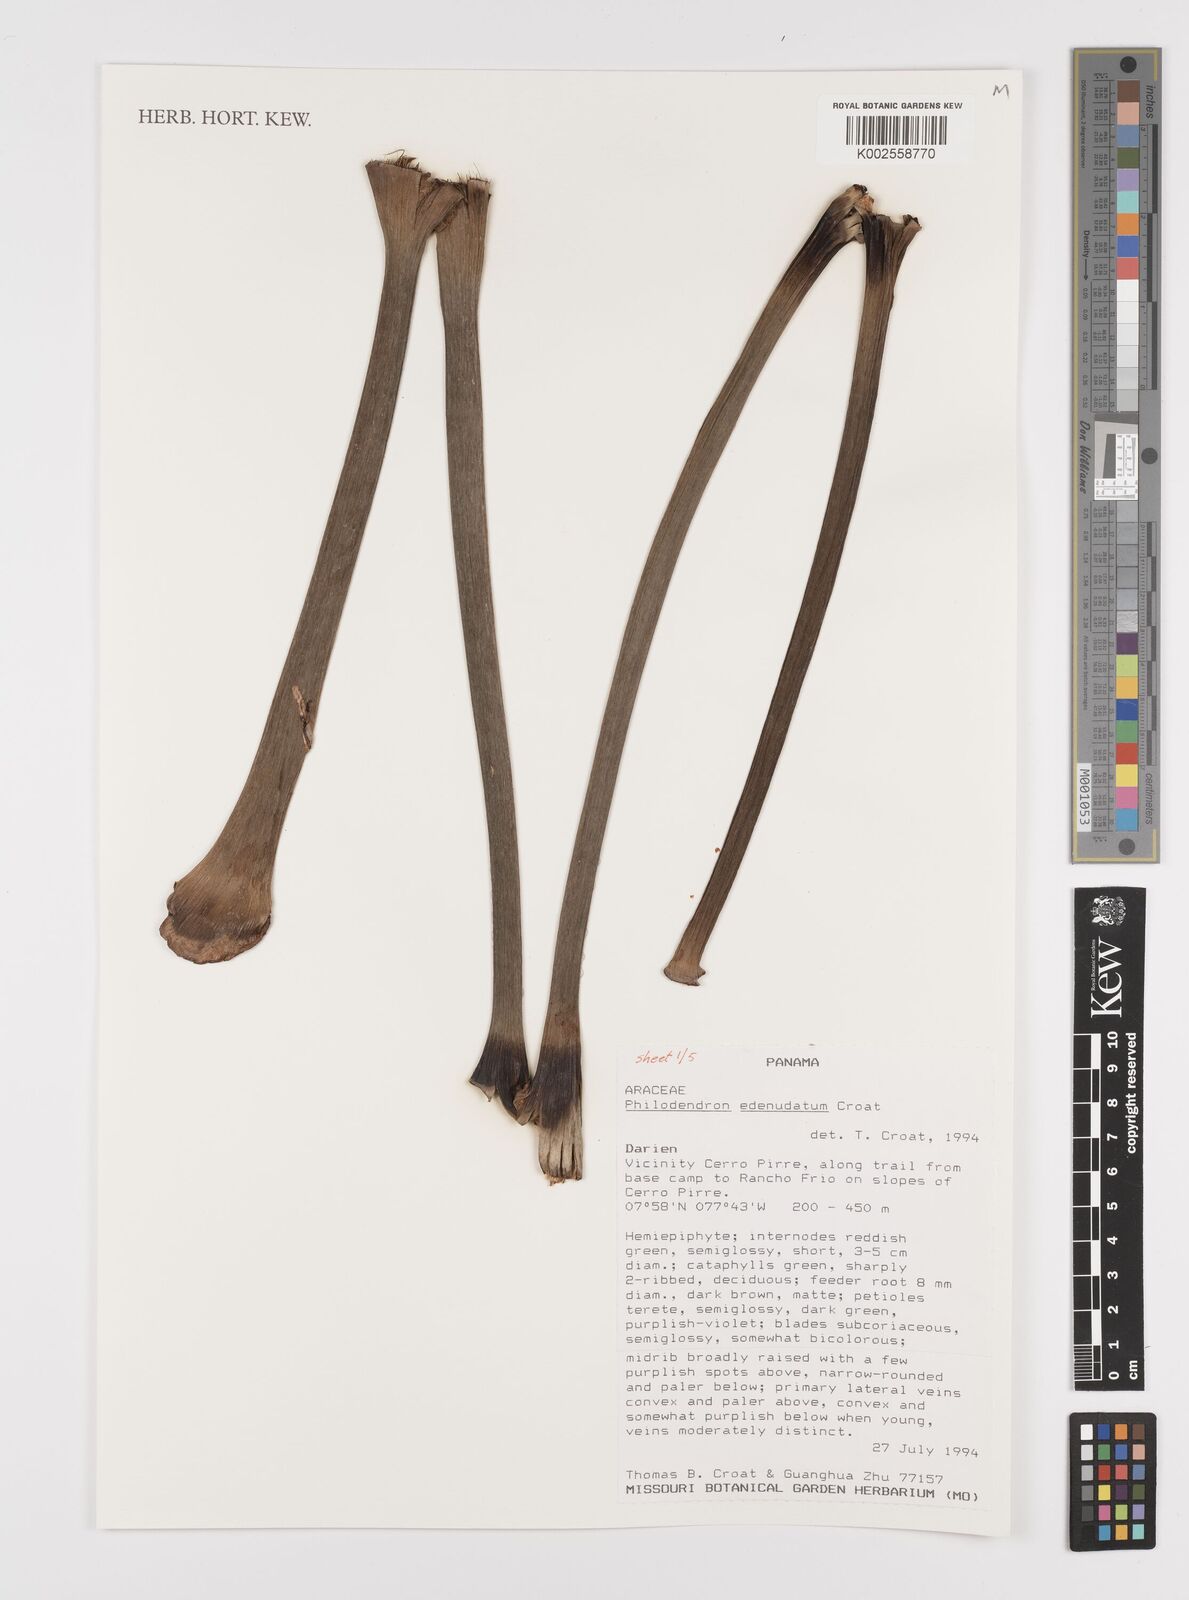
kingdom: Plantae
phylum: Tracheophyta
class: Liliopsida
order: Alismatales
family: Araceae
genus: Philodendron
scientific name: Philodendron edenudatum
